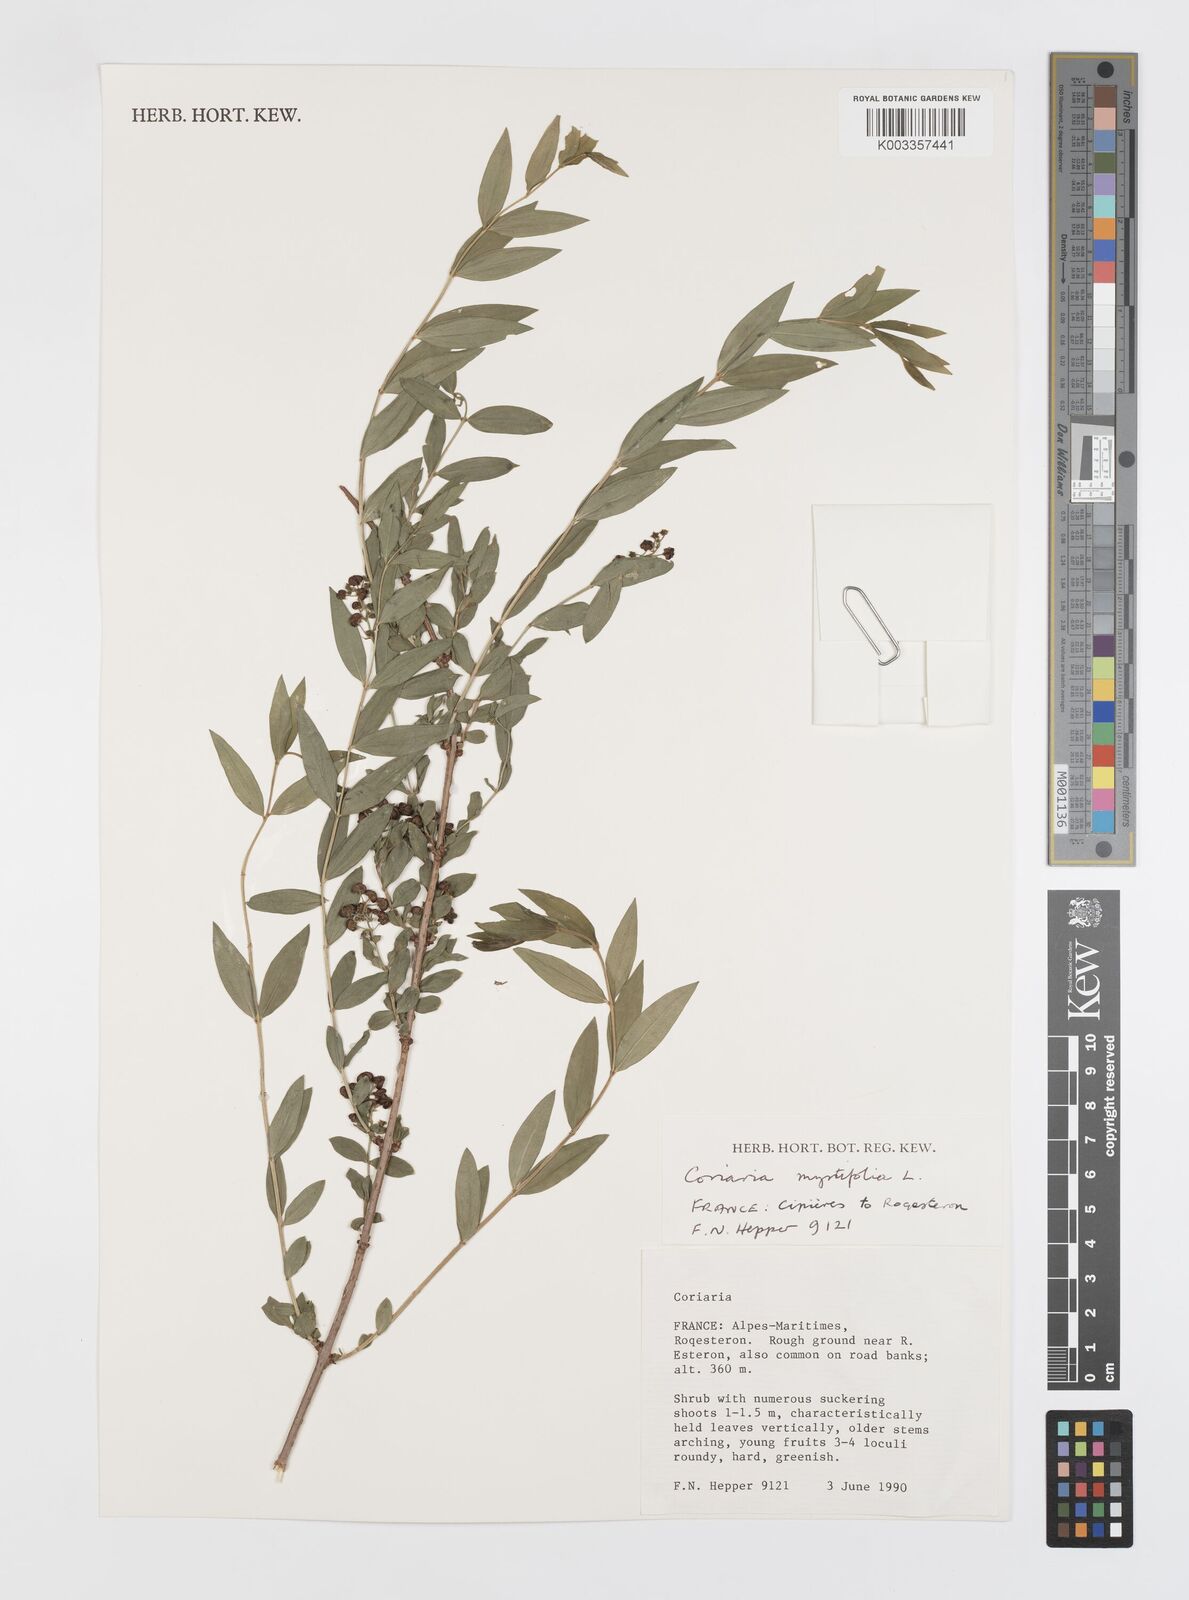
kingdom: Plantae
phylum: Tracheophyta
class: Magnoliopsida
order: Cucurbitales
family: Coriariaceae
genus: Coriaria
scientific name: Coriaria myrtifolia
